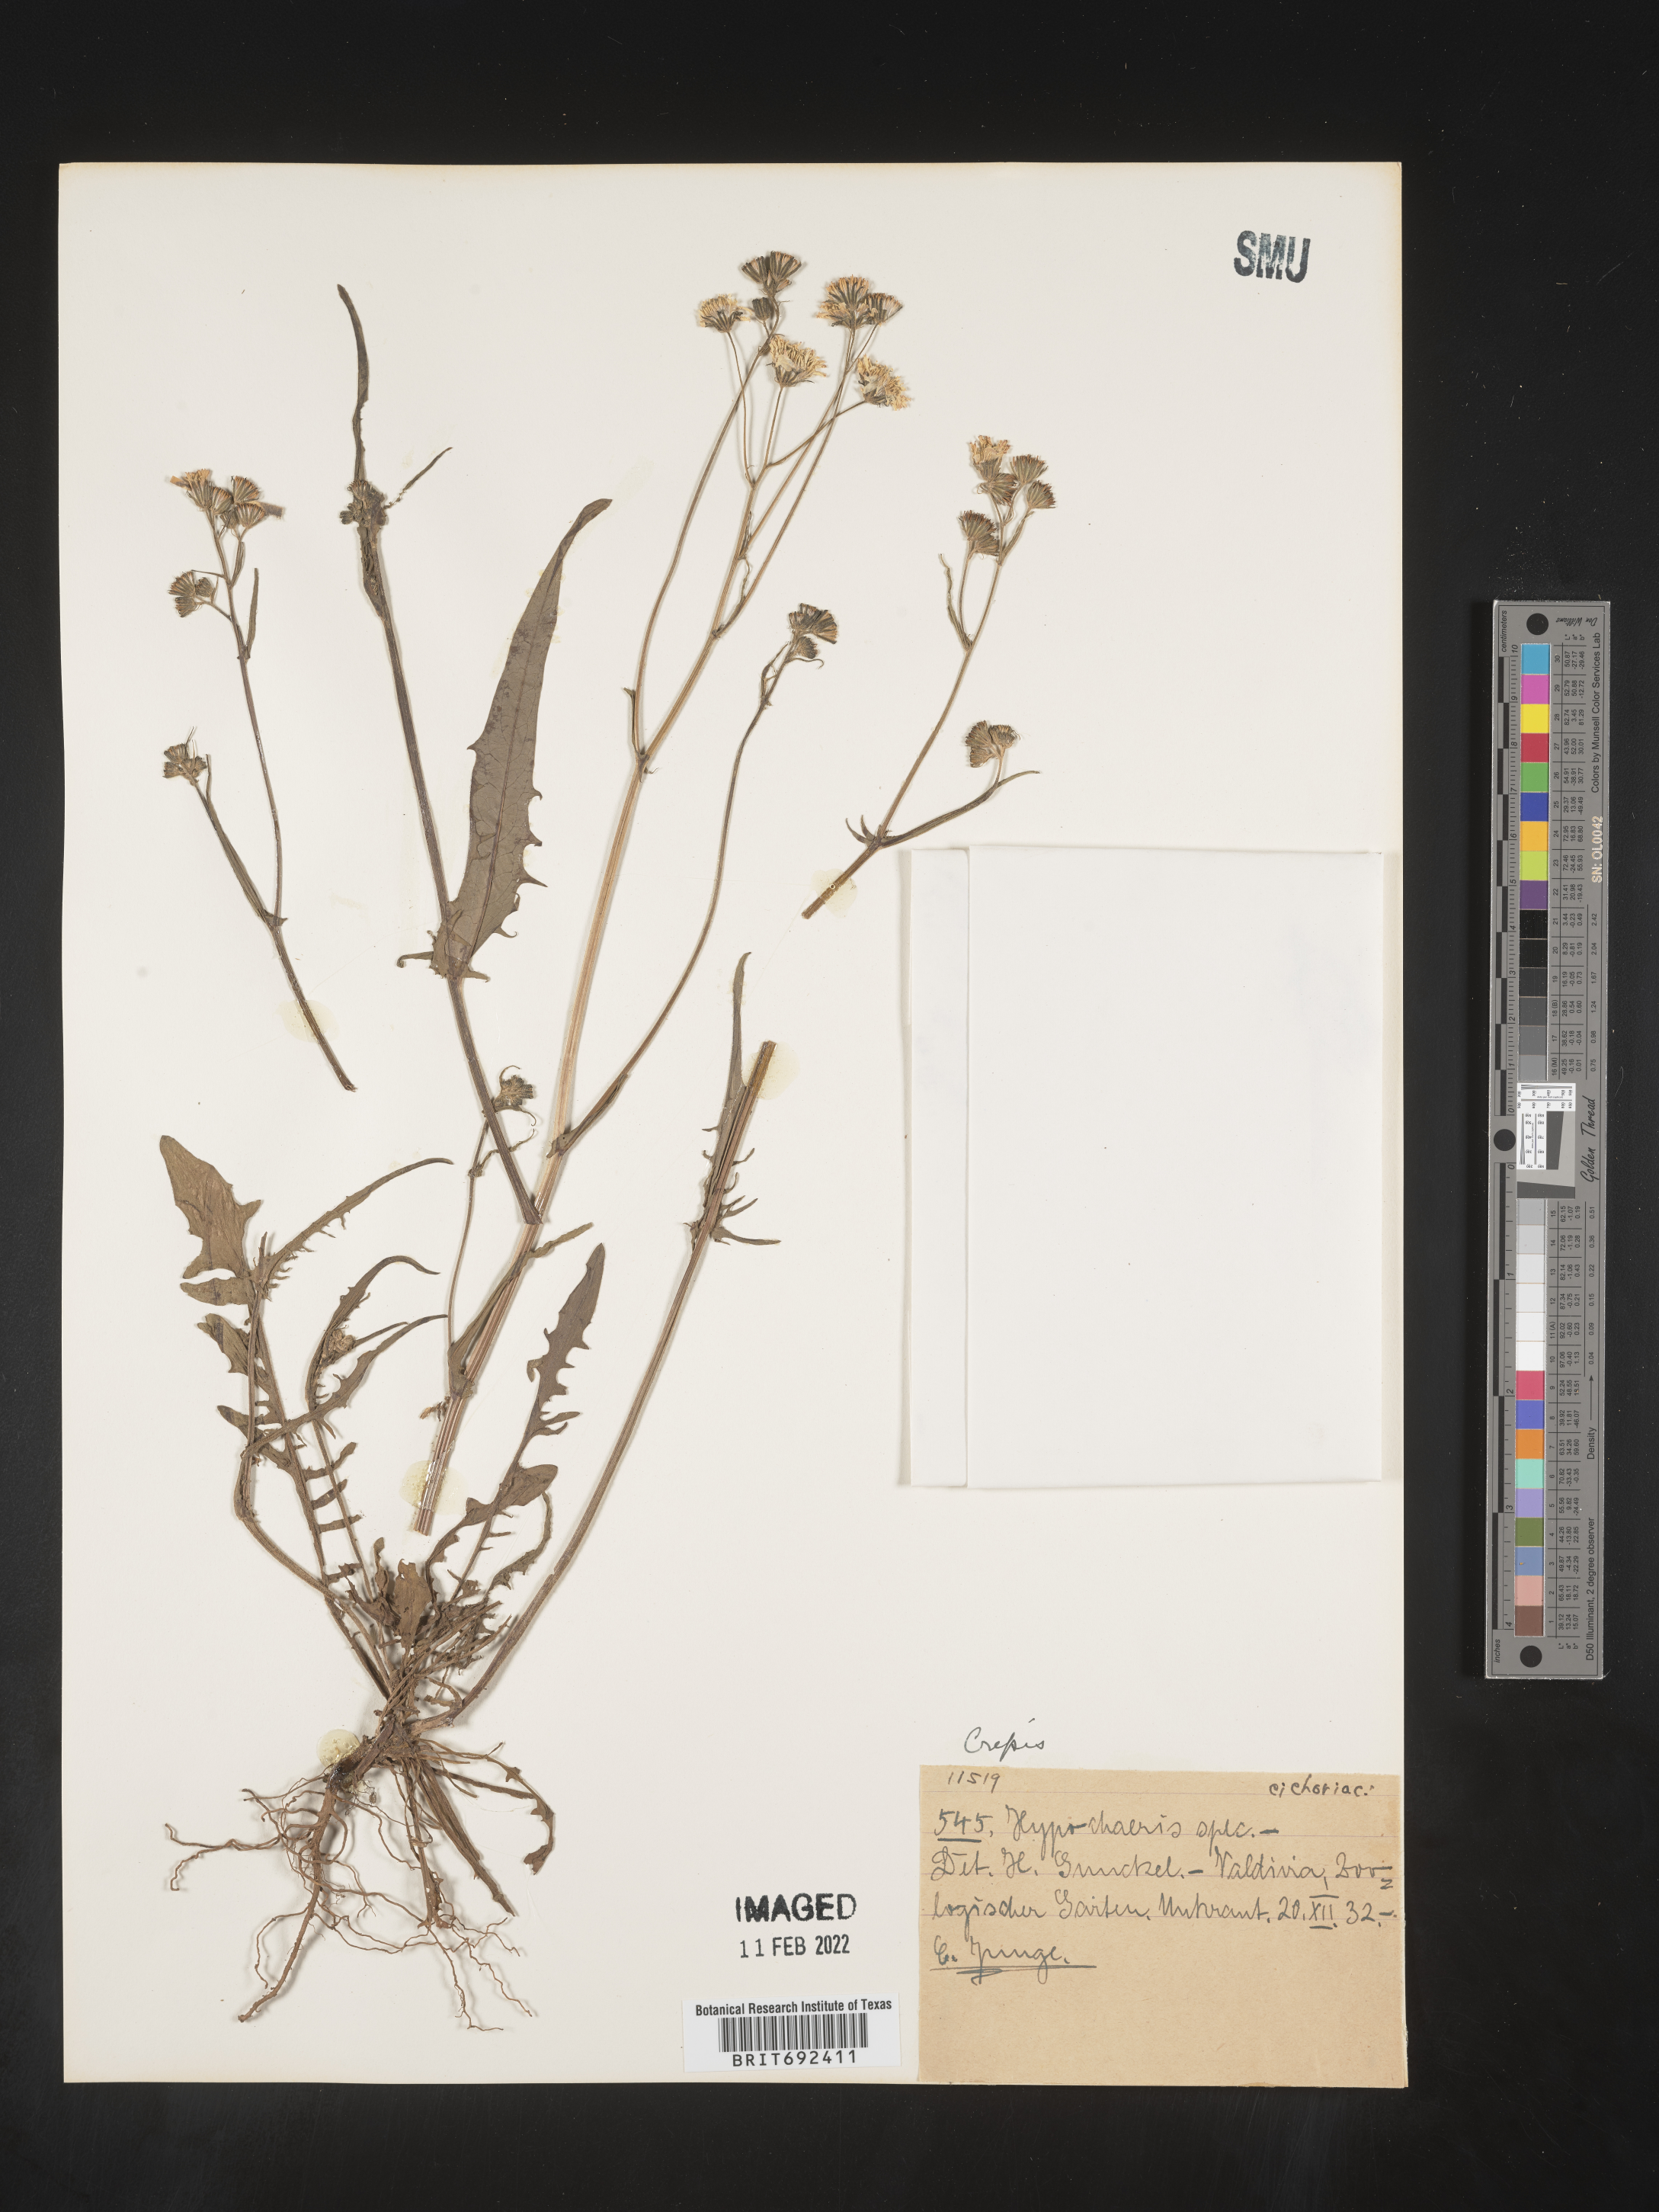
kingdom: Plantae
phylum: Tracheophyta
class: Magnoliopsida
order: Asterales
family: Asteraceae
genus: Crepis
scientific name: Crepis
